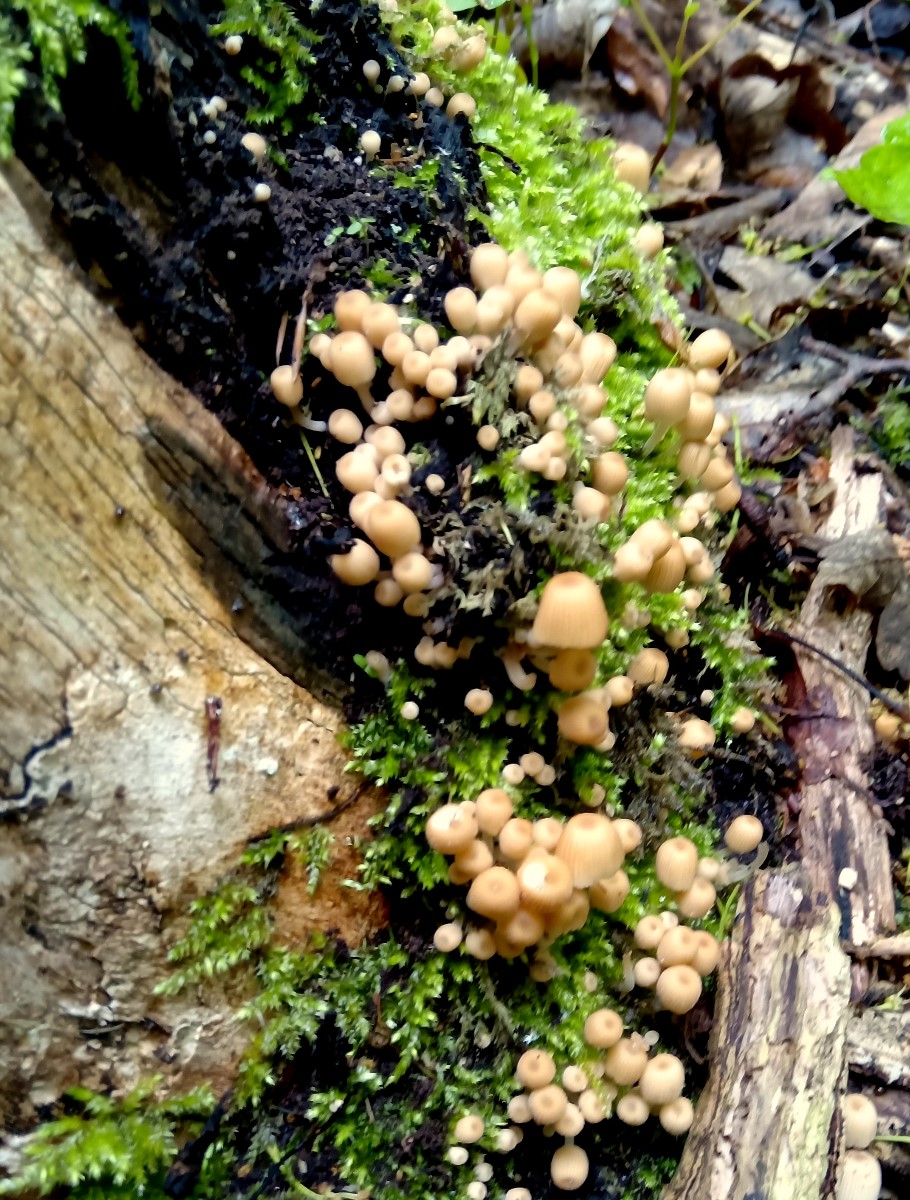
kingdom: Fungi
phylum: Basidiomycota
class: Agaricomycetes
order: Agaricales
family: Psathyrellaceae
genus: Coprinellus
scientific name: Coprinellus disseminatus
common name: bredsået blækhat
